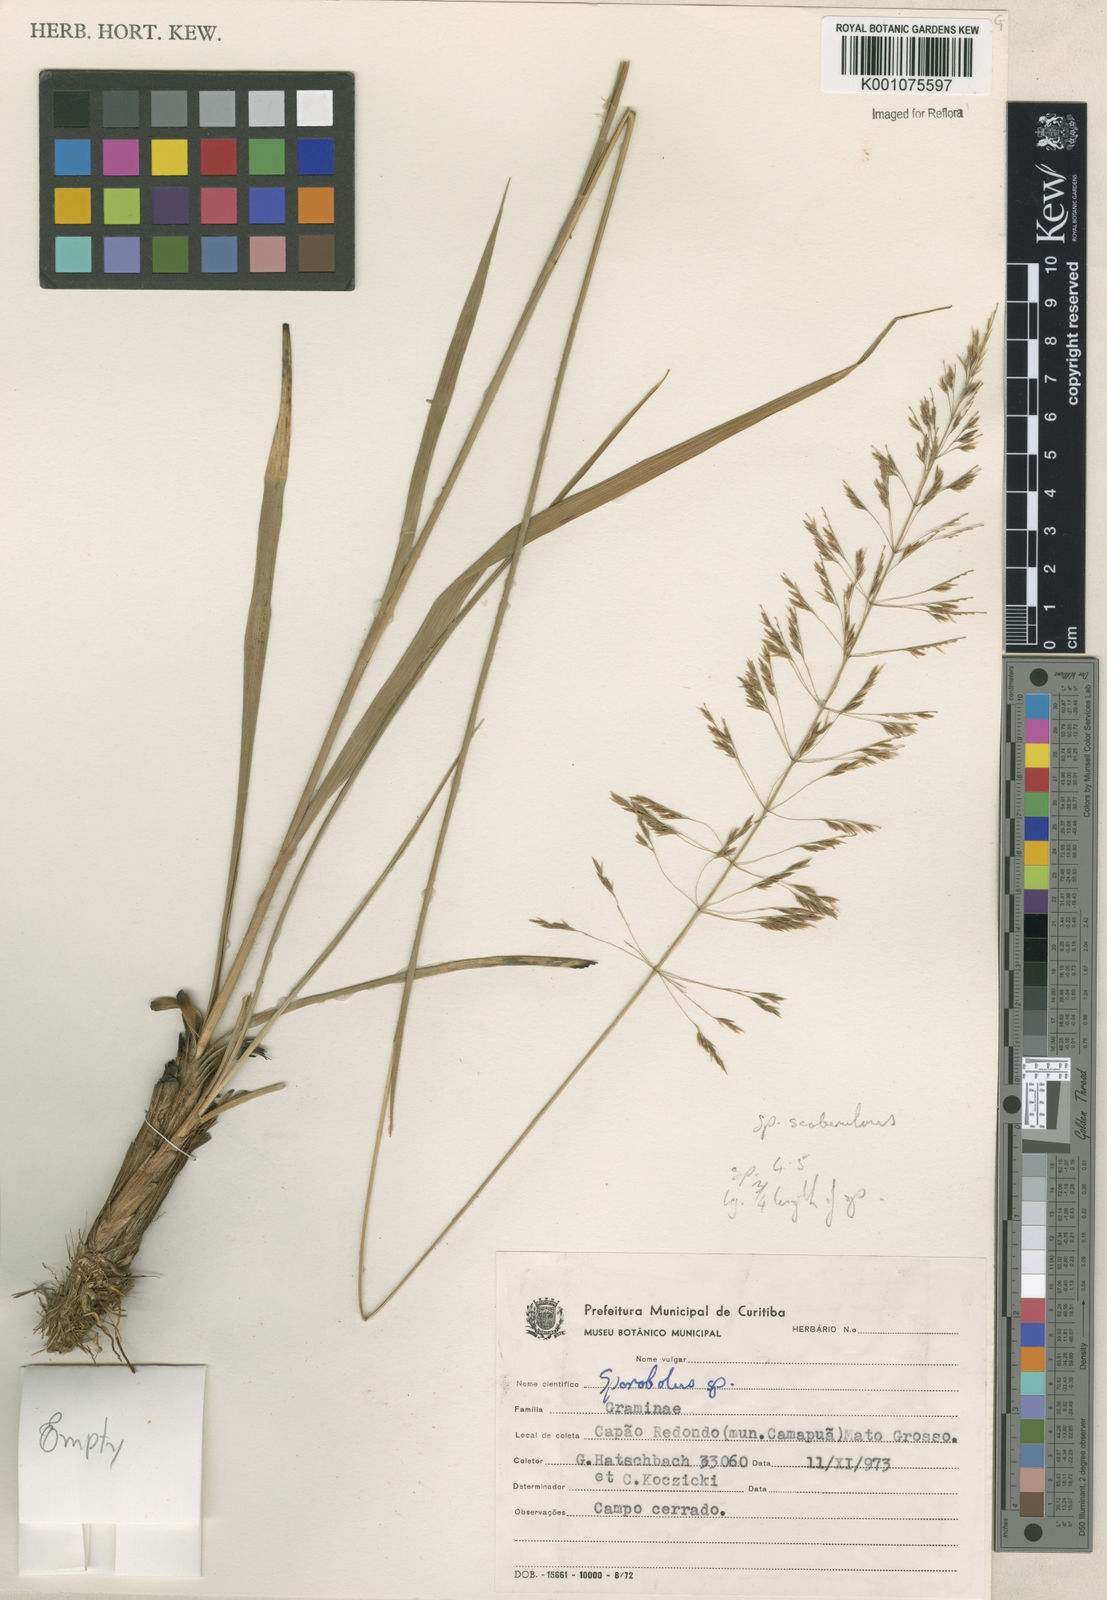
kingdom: Plantae
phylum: Tracheophyta
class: Liliopsida
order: Poales
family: Poaceae
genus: Sporobolus
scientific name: Sporobolus eximius
